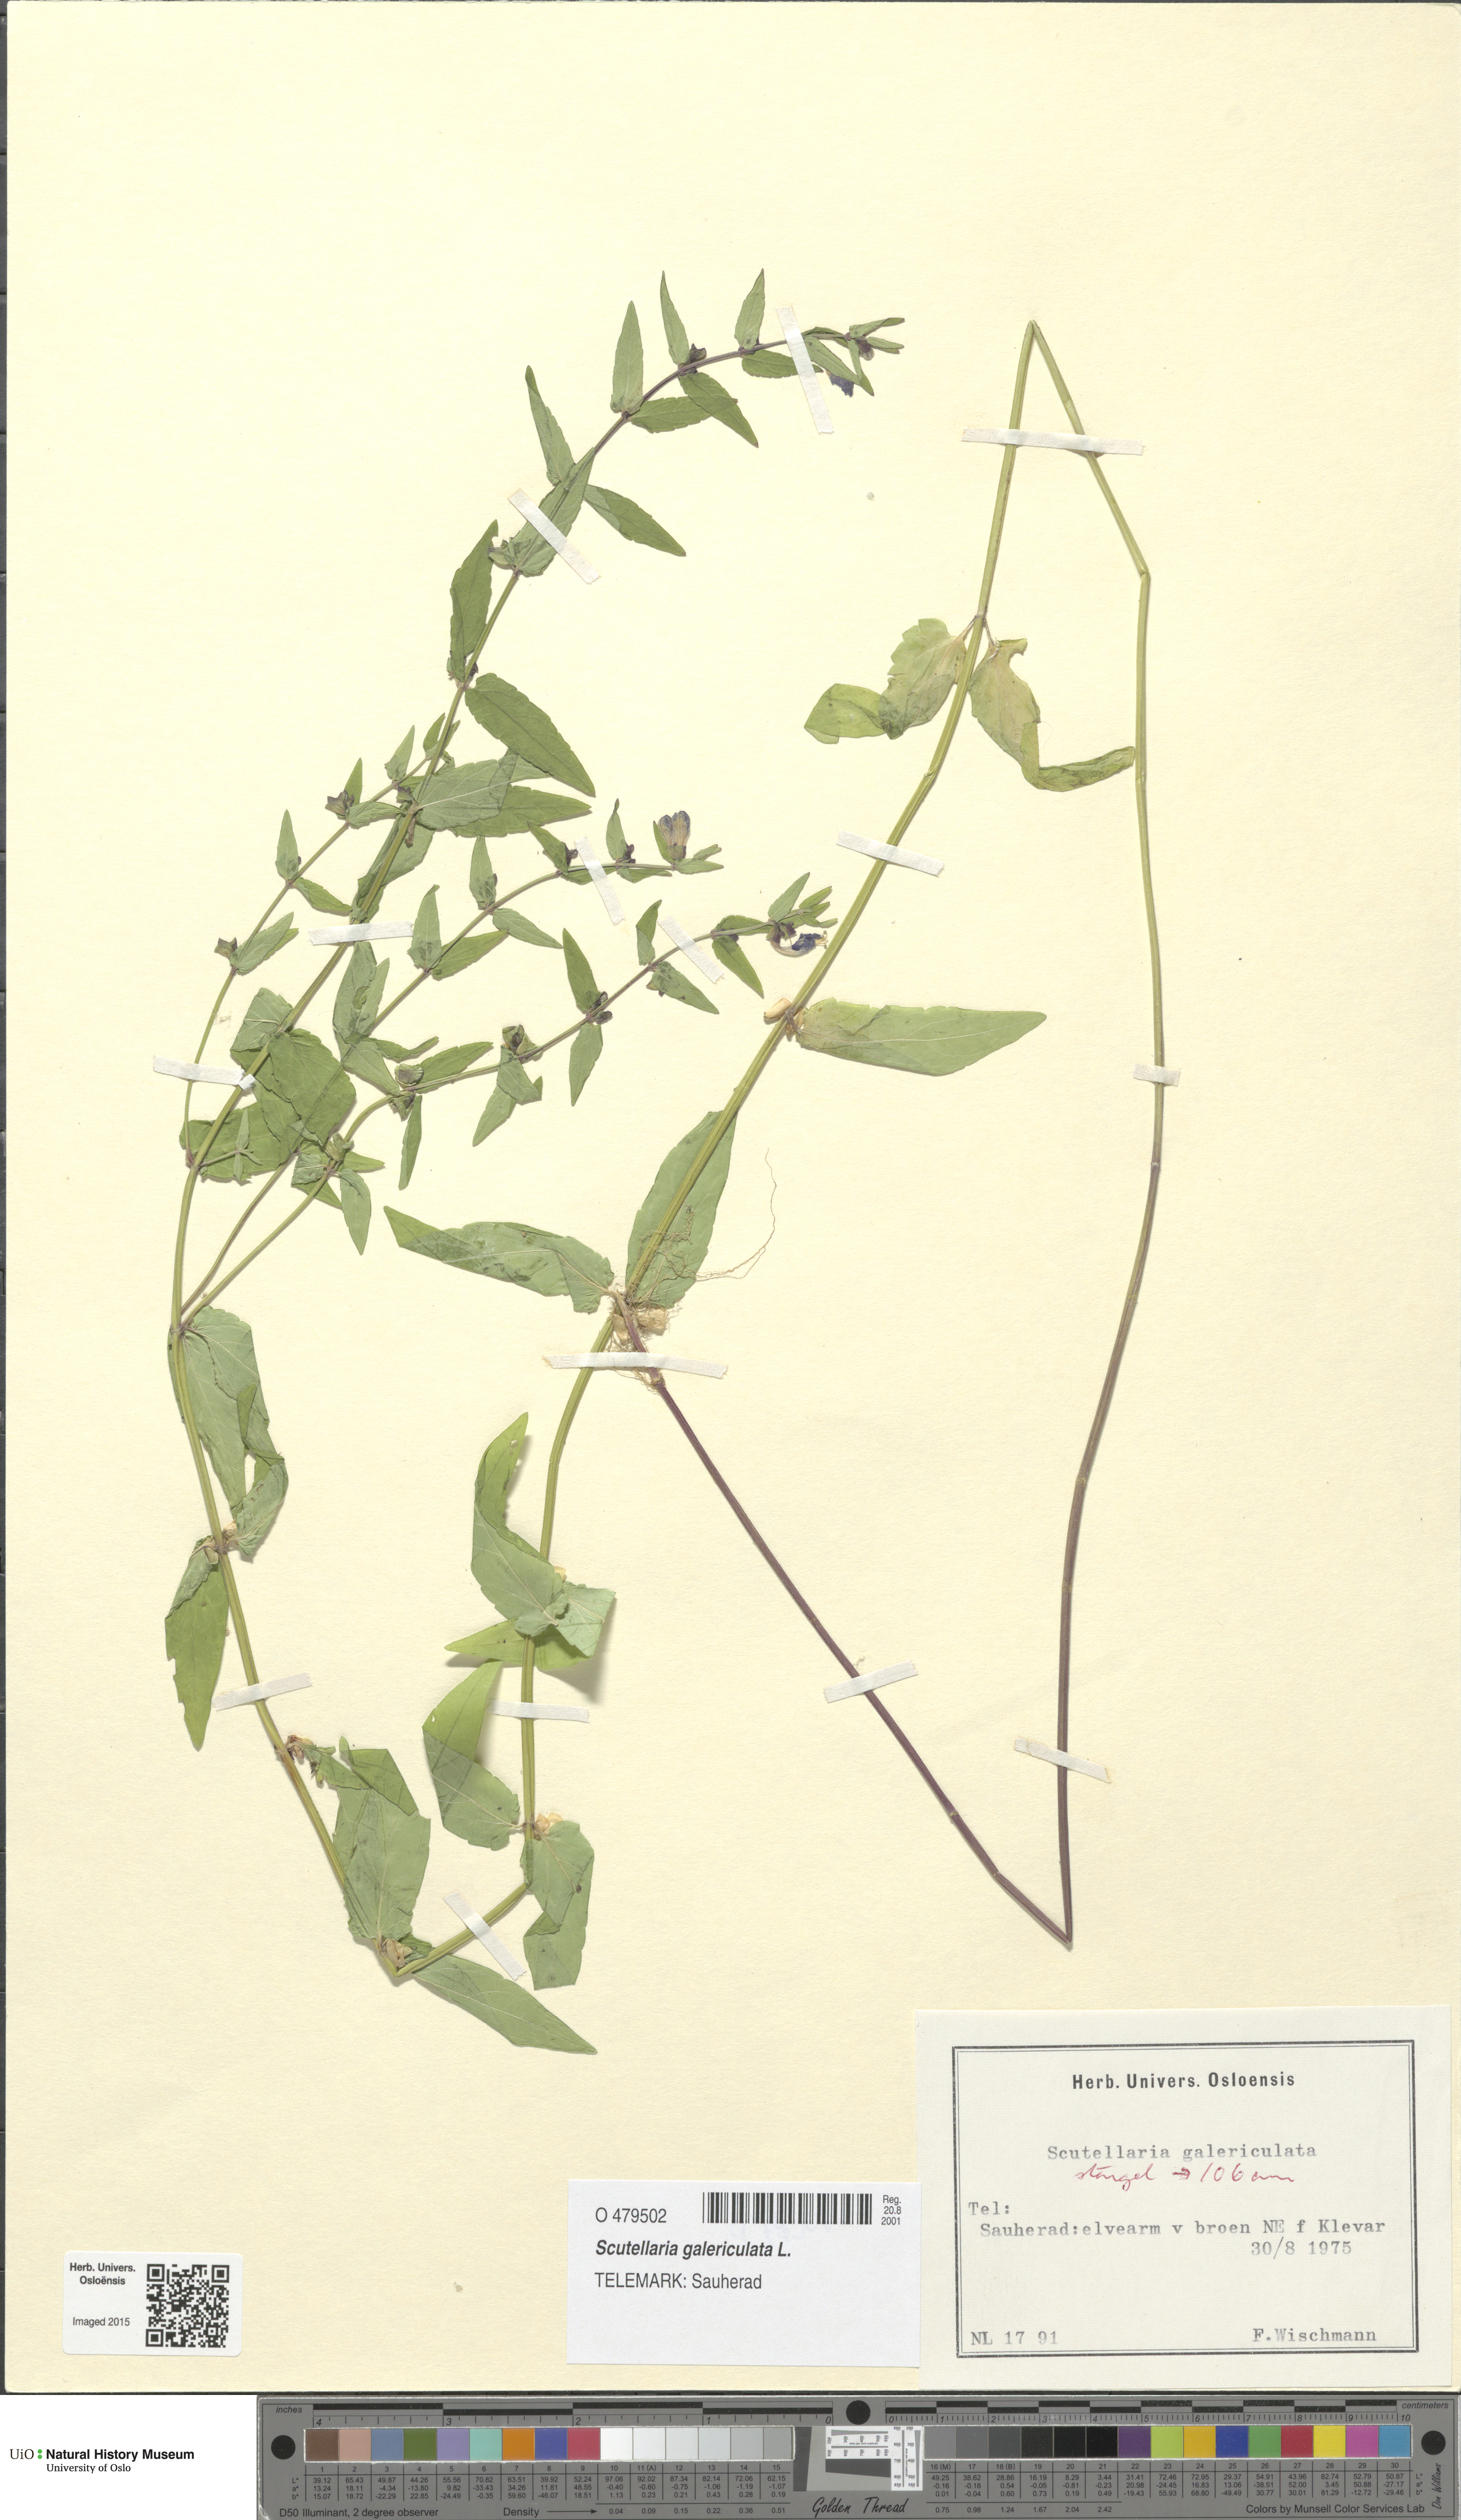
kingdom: Plantae
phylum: Tracheophyta
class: Magnoliopsida
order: Lamiales
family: Lamiaceae
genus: Scutellaria
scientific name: Scutellaria galericulata
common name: Skullcap
